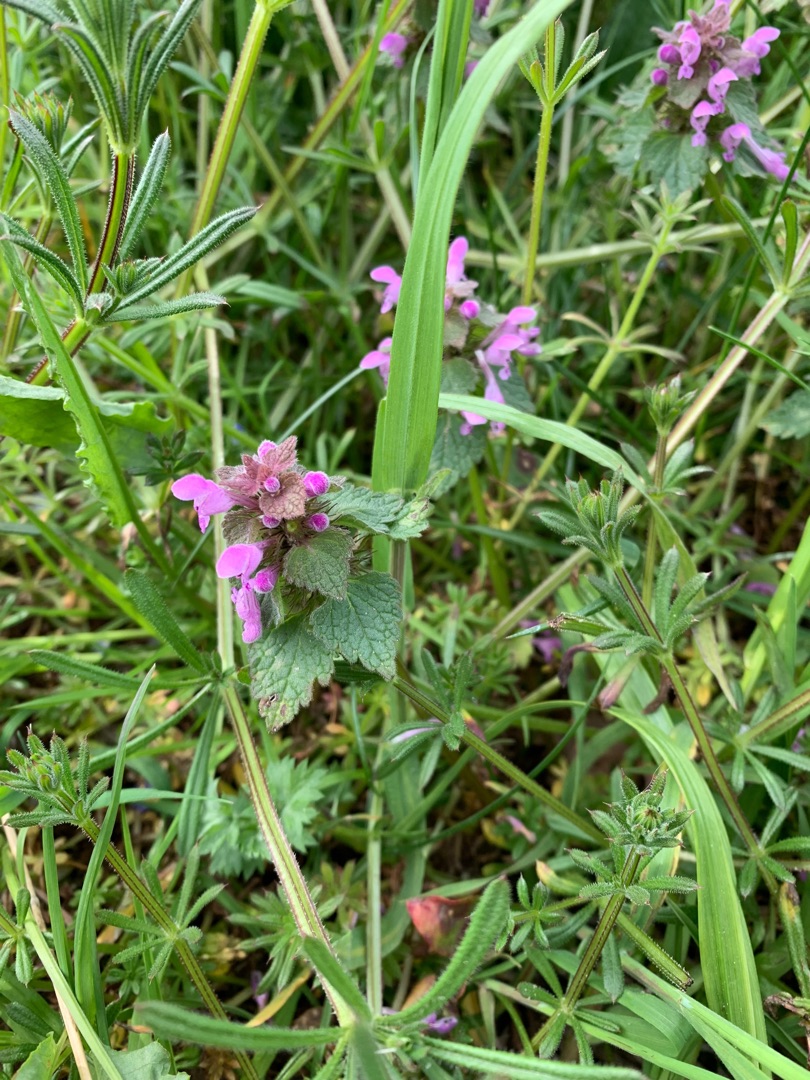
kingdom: Plantae
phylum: Tracheophyta
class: Magnoliopsida
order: Lamiales
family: Lamiaceae
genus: Lamium
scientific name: Lamium purpureum
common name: Rød tvetand
